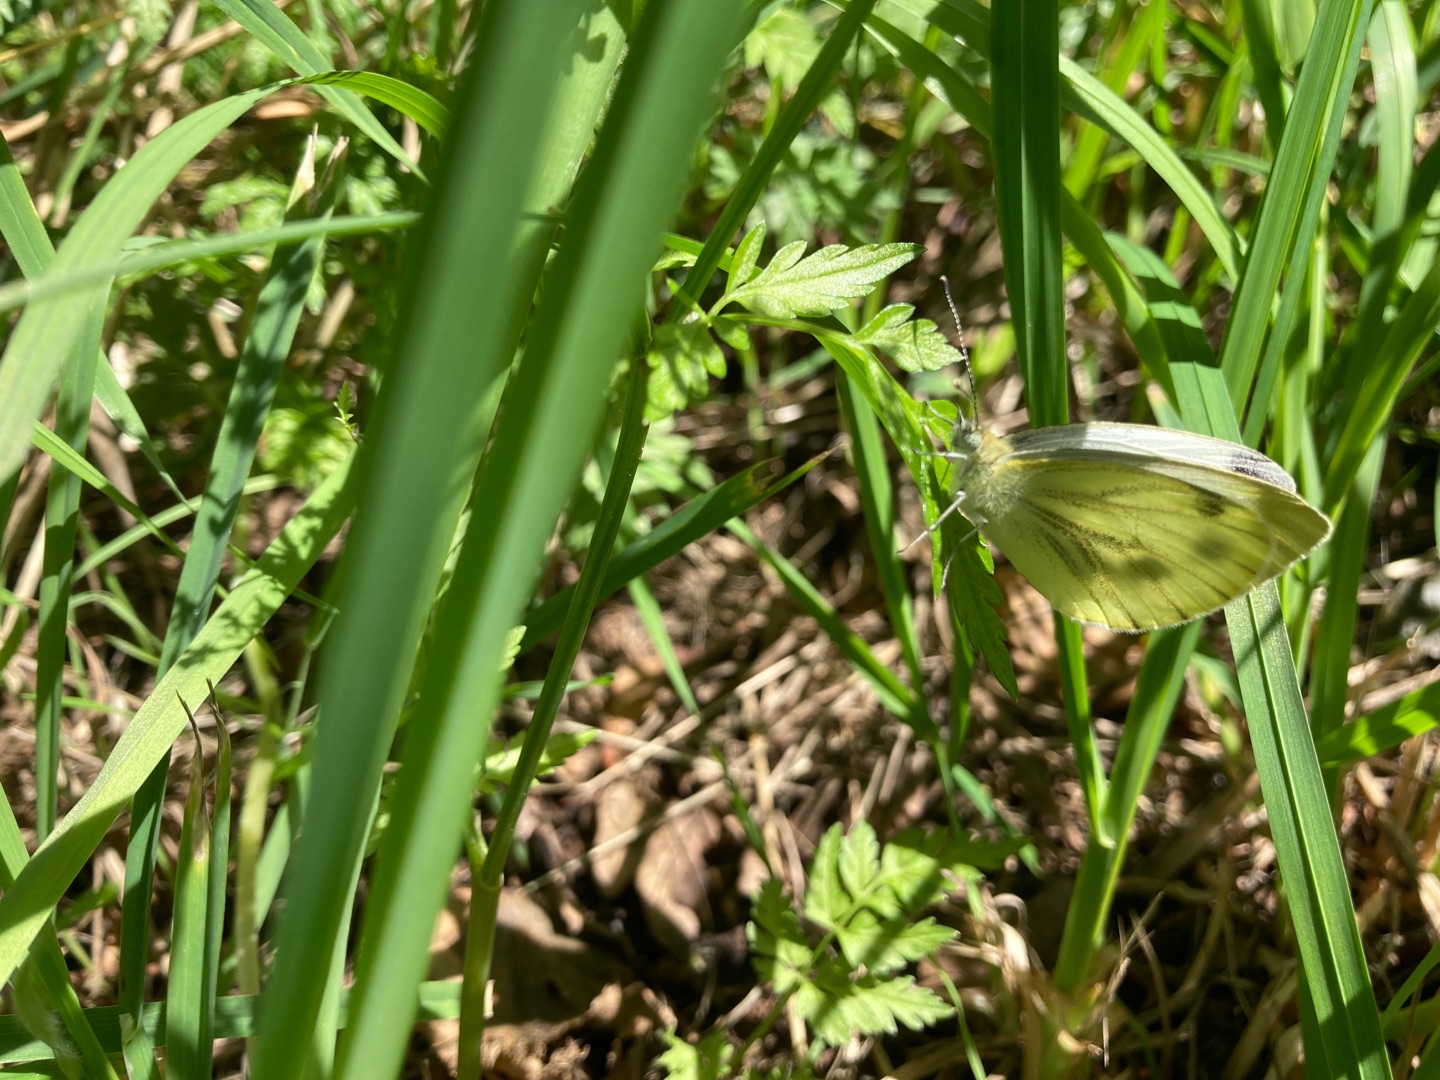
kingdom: Animalia
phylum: Arthropoda
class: Insecta
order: Lepidoptera
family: Pieridae
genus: Pieris
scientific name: Pieris napi
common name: Grønåret kålsommerfugl
